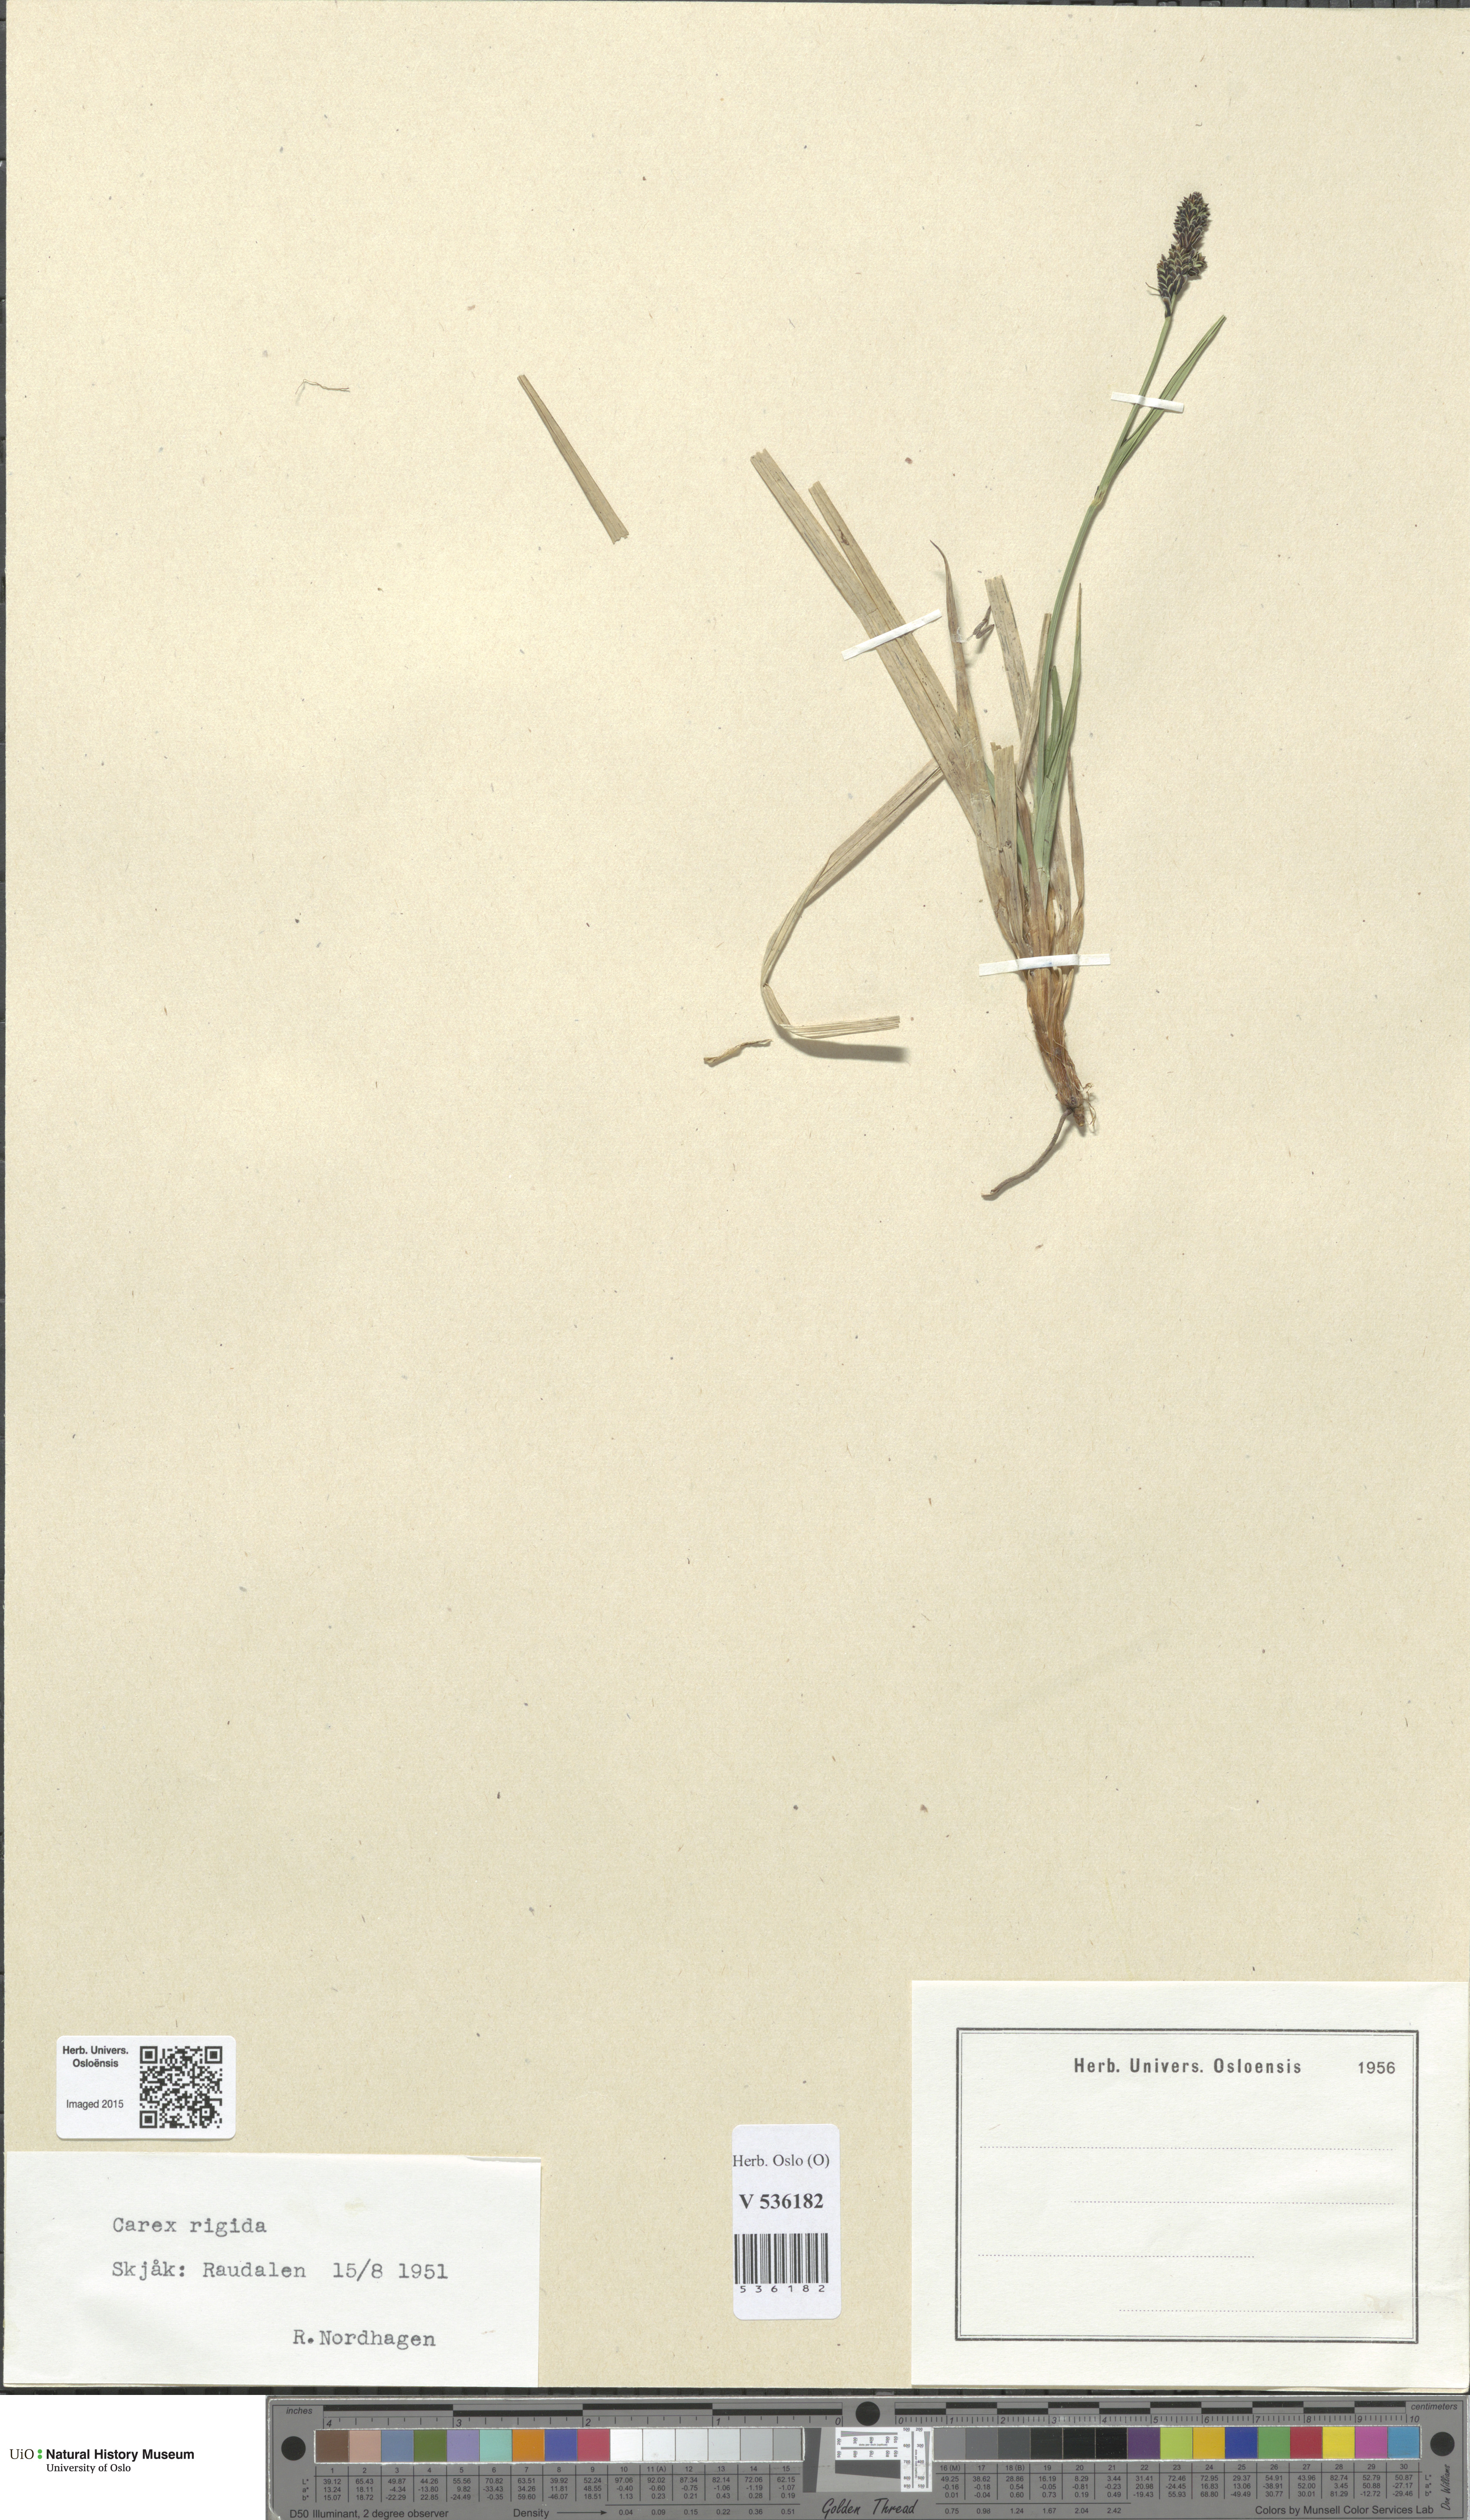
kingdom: Plantae
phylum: Tracheophyta
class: Liliopsida
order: Poales
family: Cyperaceae
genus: Carex
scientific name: Carex dacica
